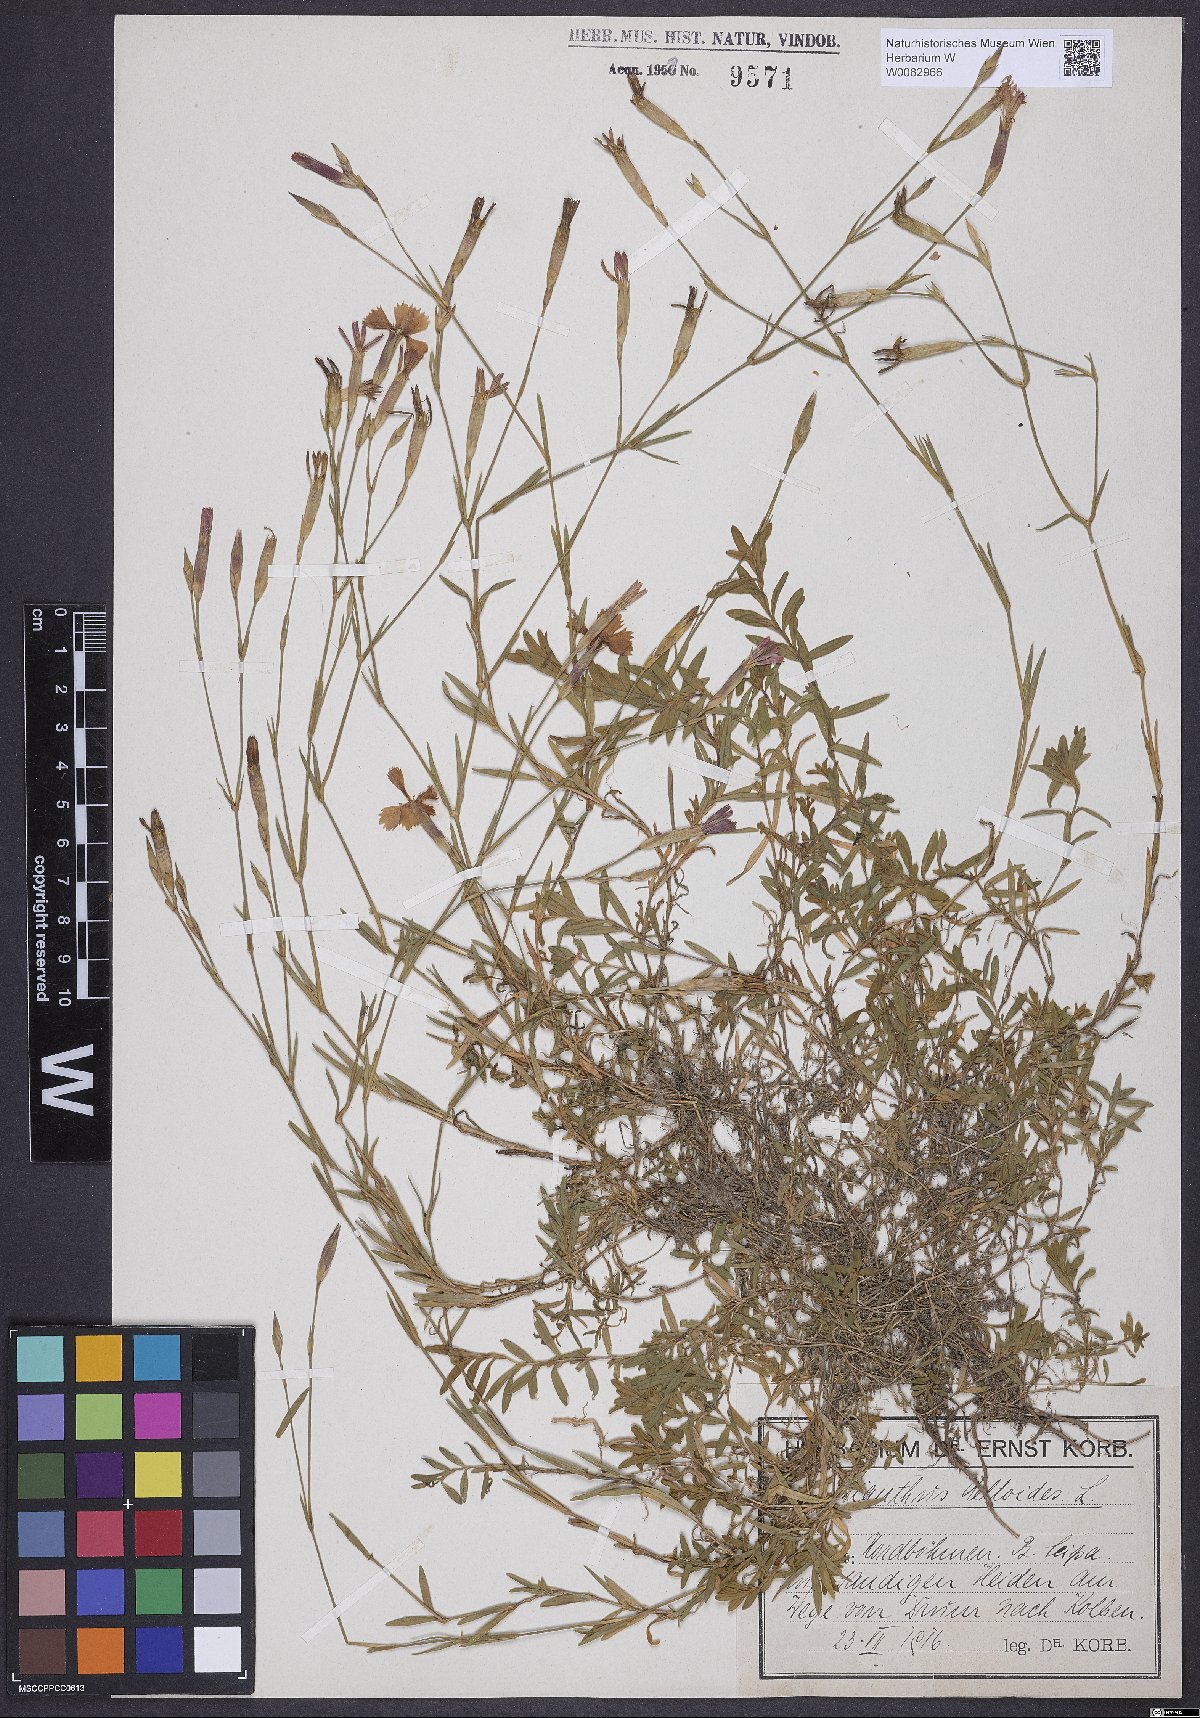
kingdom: Plantae
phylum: Tracheophyta
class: Magnoliopsida
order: Caryophyllales
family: Caryophyllaceae
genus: Dianthus
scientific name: Dianthus deltoides
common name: Maiden pink
